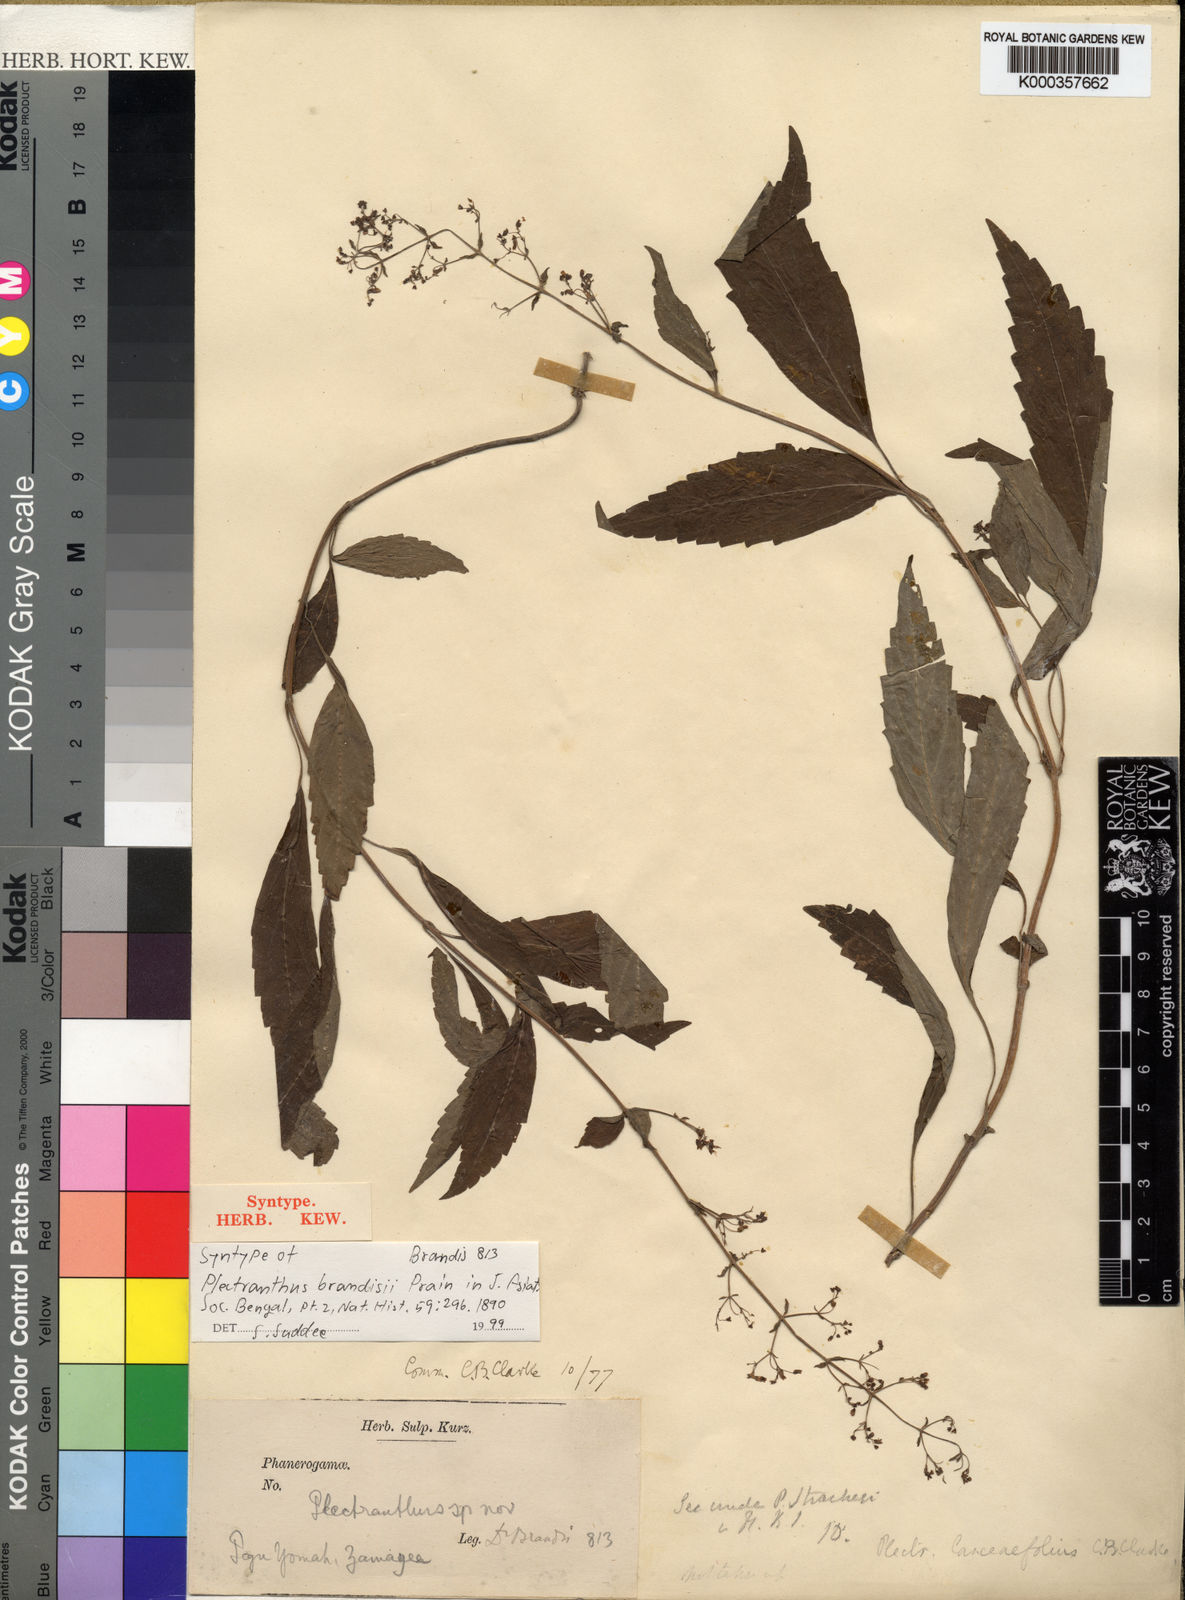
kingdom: Plantae
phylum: Tracheophyta
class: Magnoliopsida
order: Lamiales
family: Lamiaceae
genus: Isodon
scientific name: Isodon walkeri
